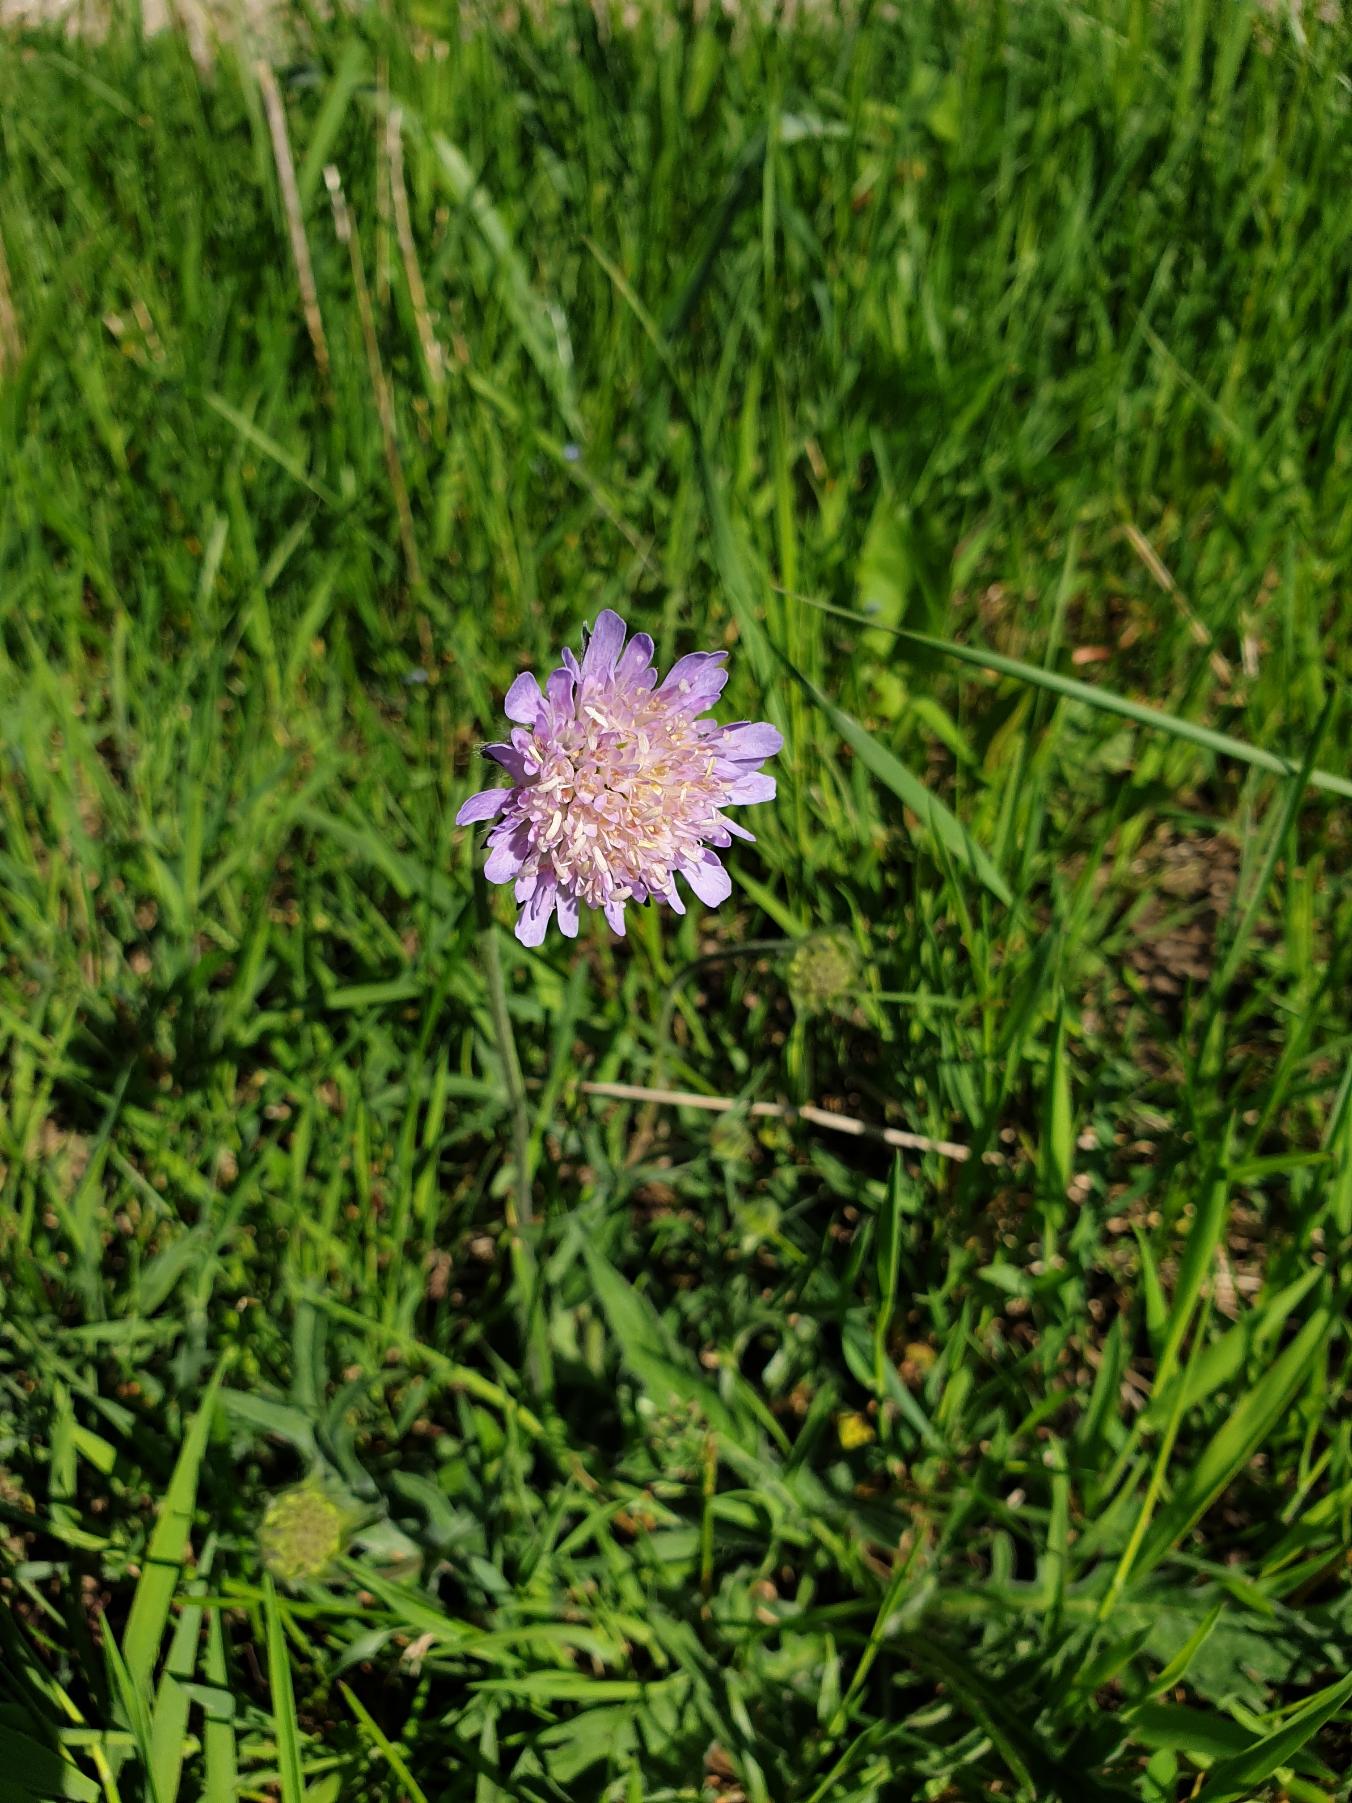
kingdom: Plantae
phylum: Tracheophyta
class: Magnoliopsida
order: Dipsacales
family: Caprifoliaceae
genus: Knautia
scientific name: Knautia arvensis
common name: Blåhat
